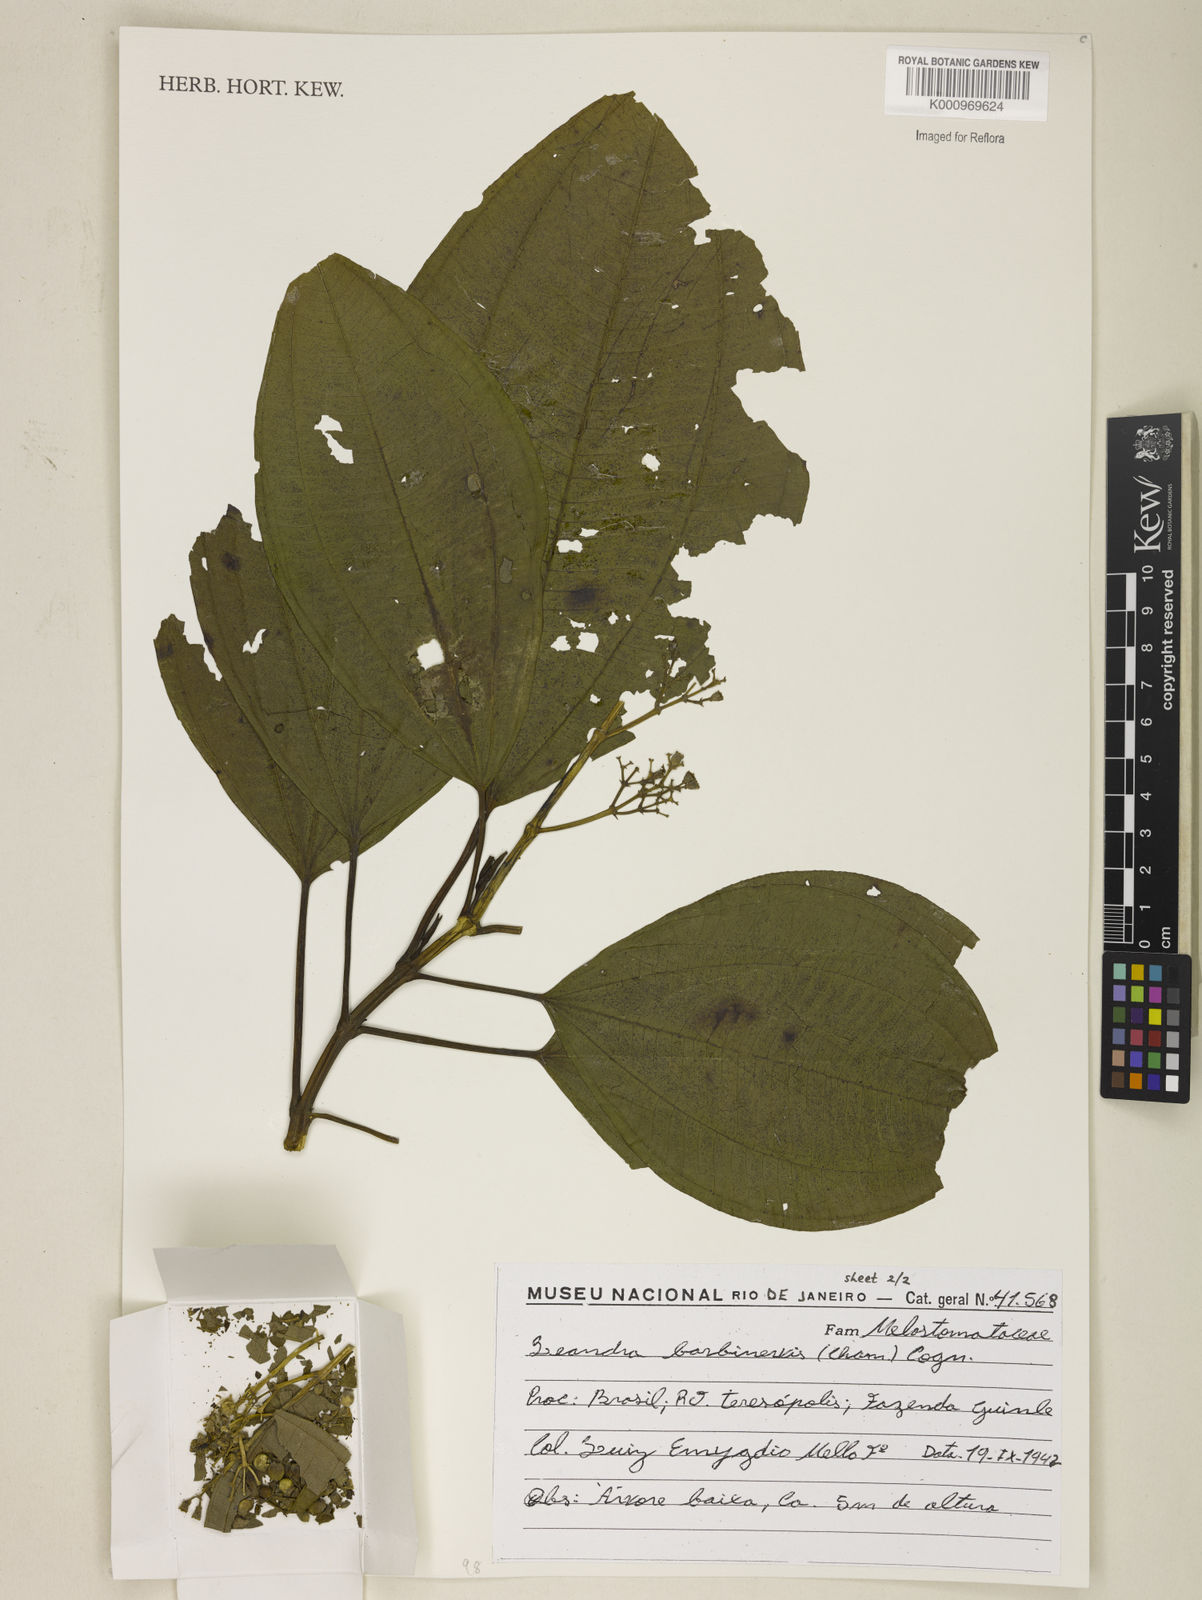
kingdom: Plantae
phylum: Tracheophyta
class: Magnoliopsida
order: Myrtales
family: Melastomataceae
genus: Miconia
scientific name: Miconia trauninensis
